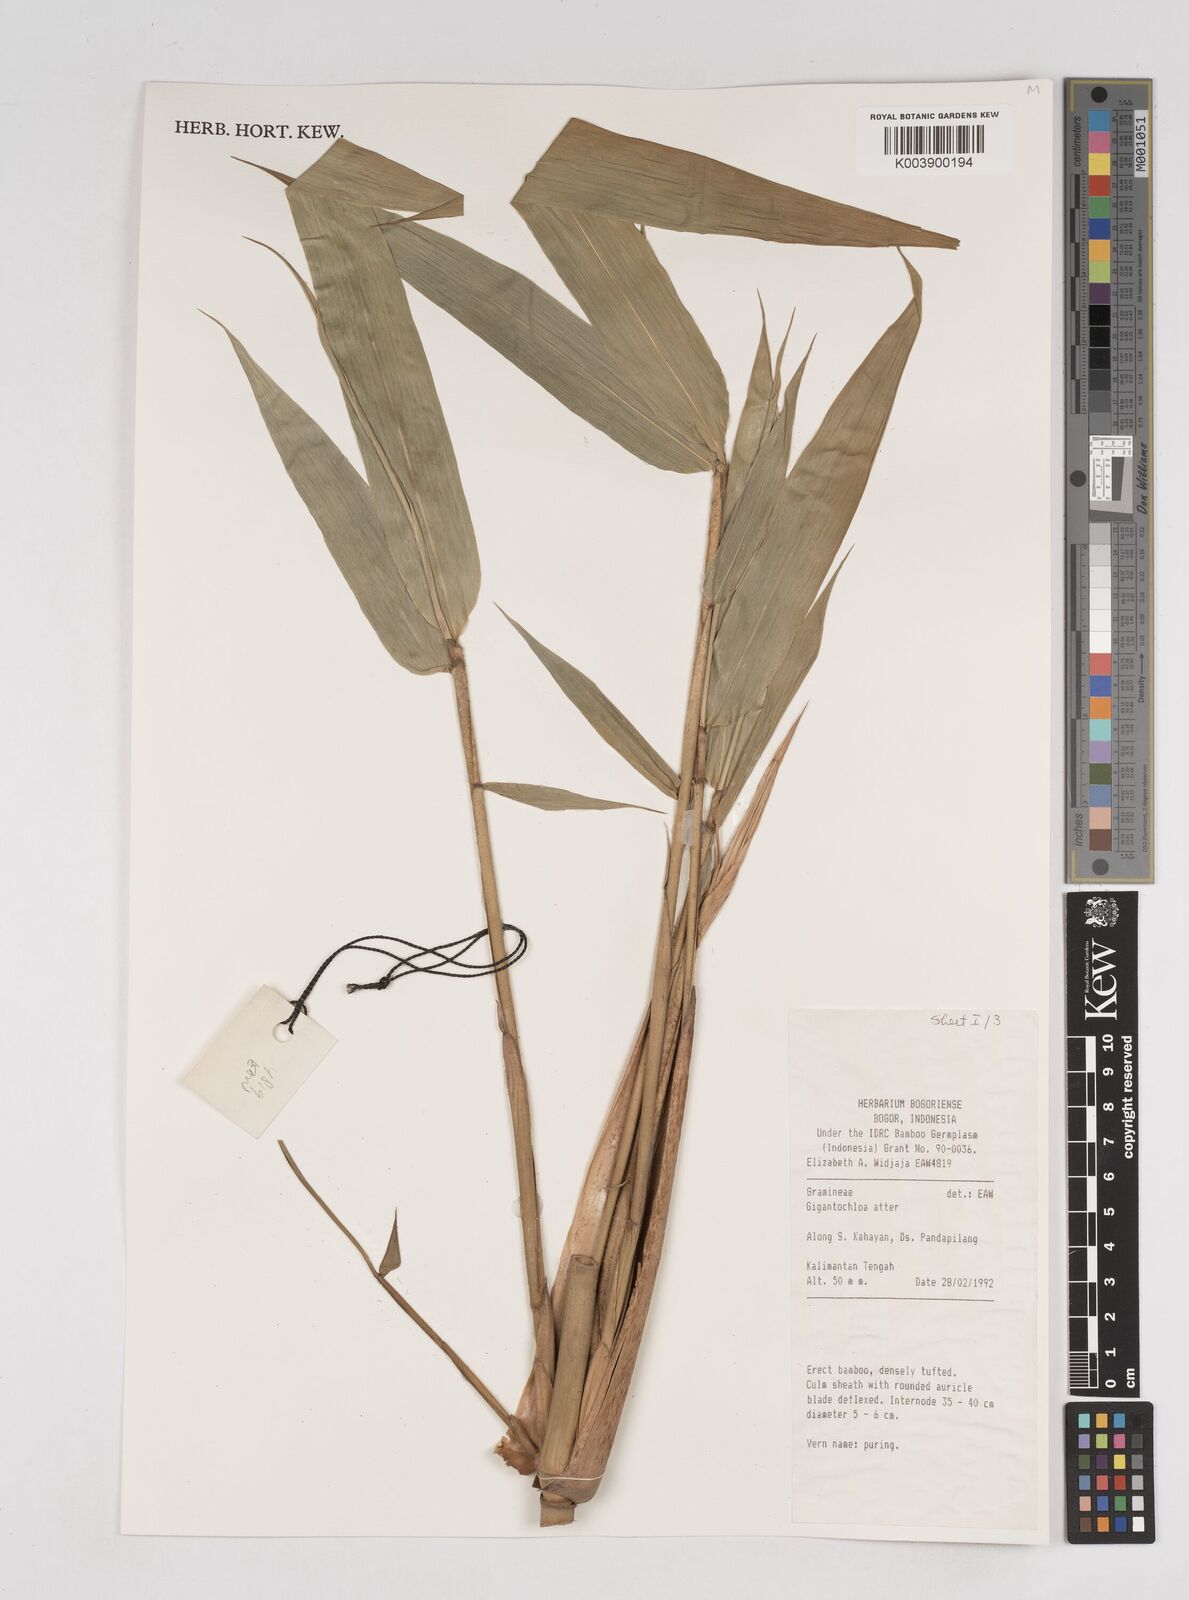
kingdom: Plantae
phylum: Tracheophyta
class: Liliopsida
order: Poales
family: Poaceae
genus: Gigantochloa
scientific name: Gigantochloa atter
